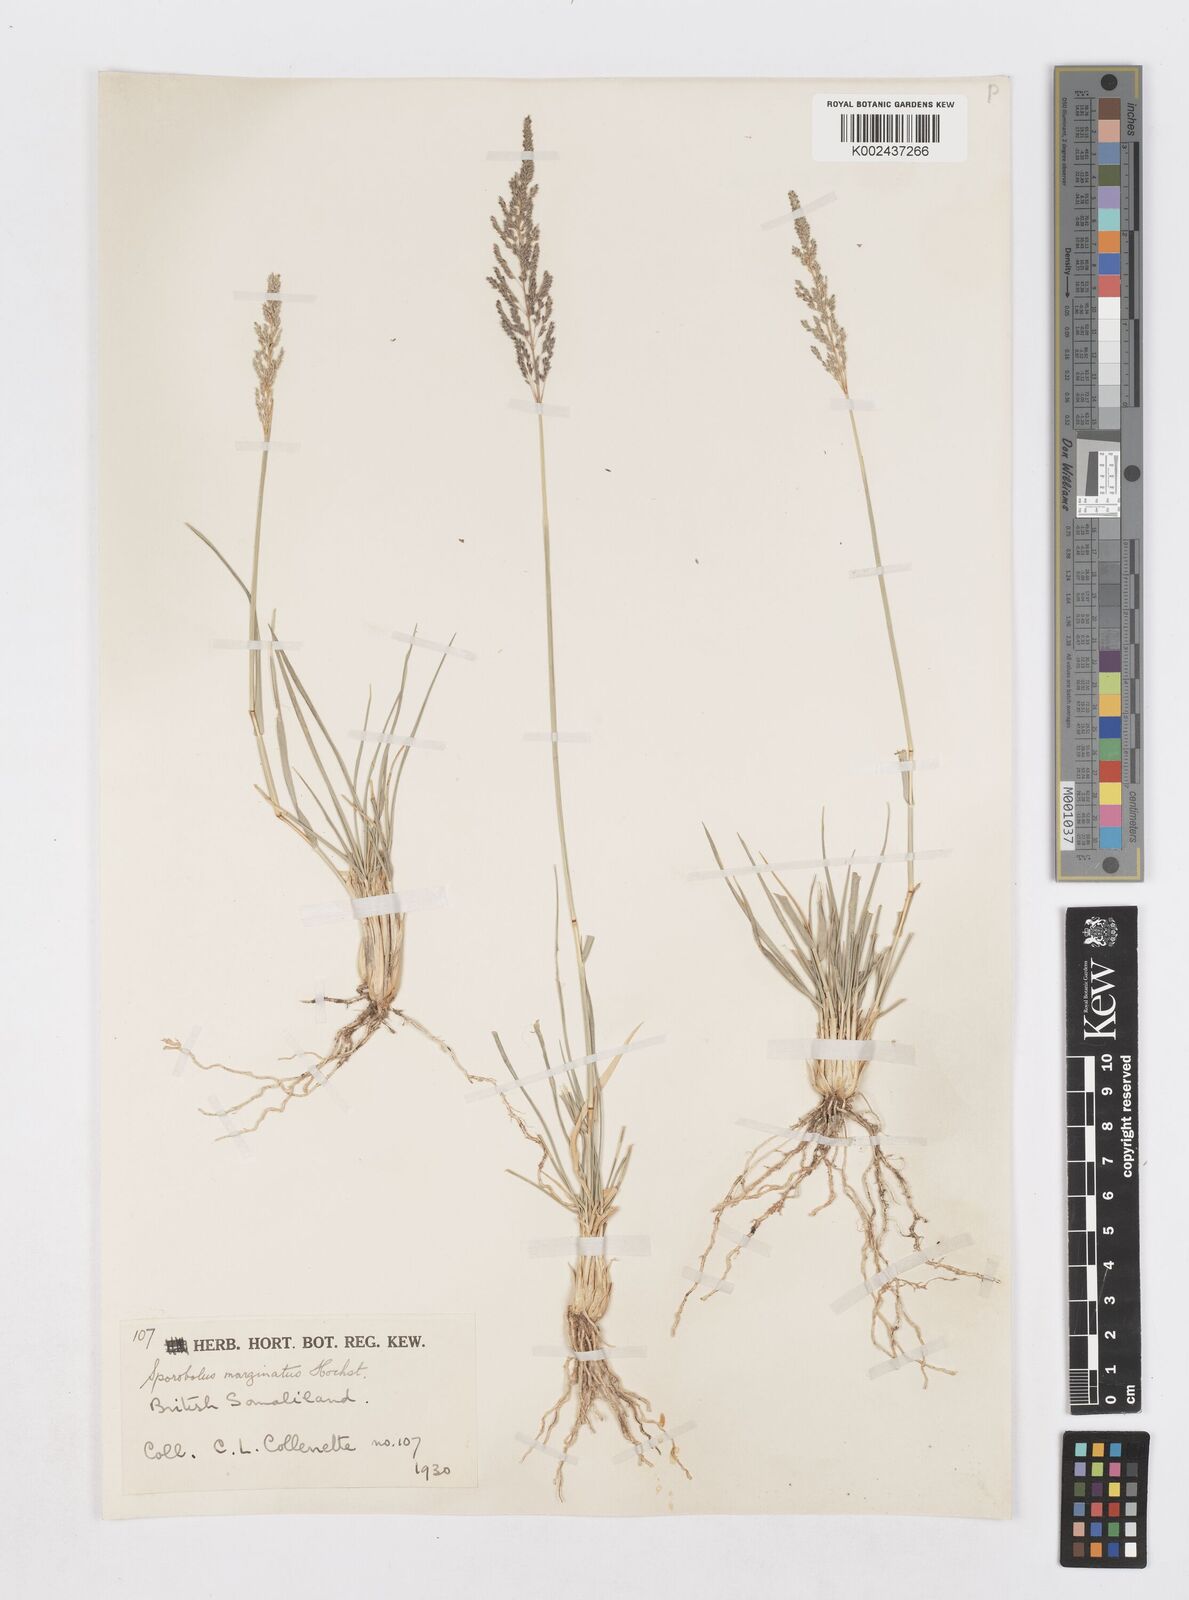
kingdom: Plantae
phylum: Tracheophyta
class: Liliopsida
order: Poales
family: Poaceae
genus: Sporobolus
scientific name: Sporobolus ioclados
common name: Pan dropseed
